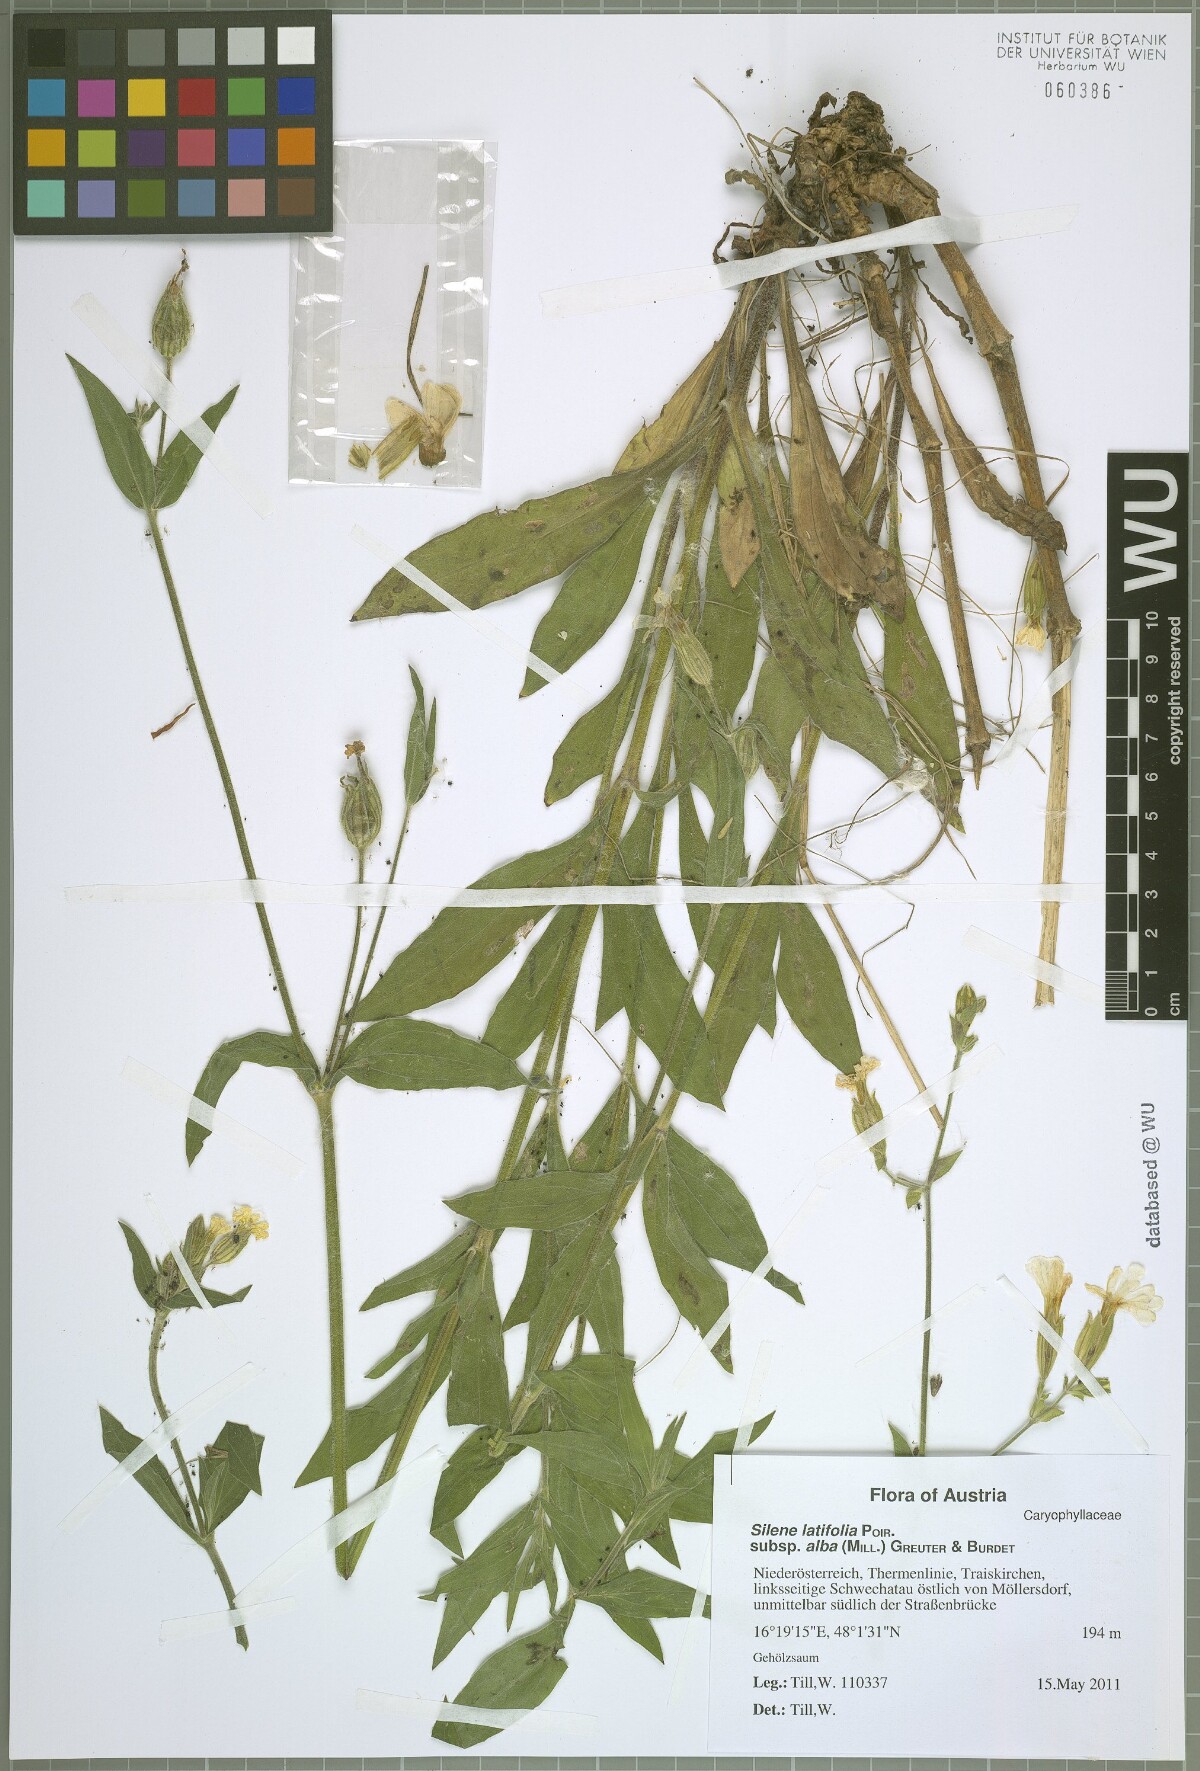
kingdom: Plantae
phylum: Tracheophyta
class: Magnoliopsida
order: Caryophyllales
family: Caryophyllaceae
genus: Silene
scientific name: Silene latifolia
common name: White campion
